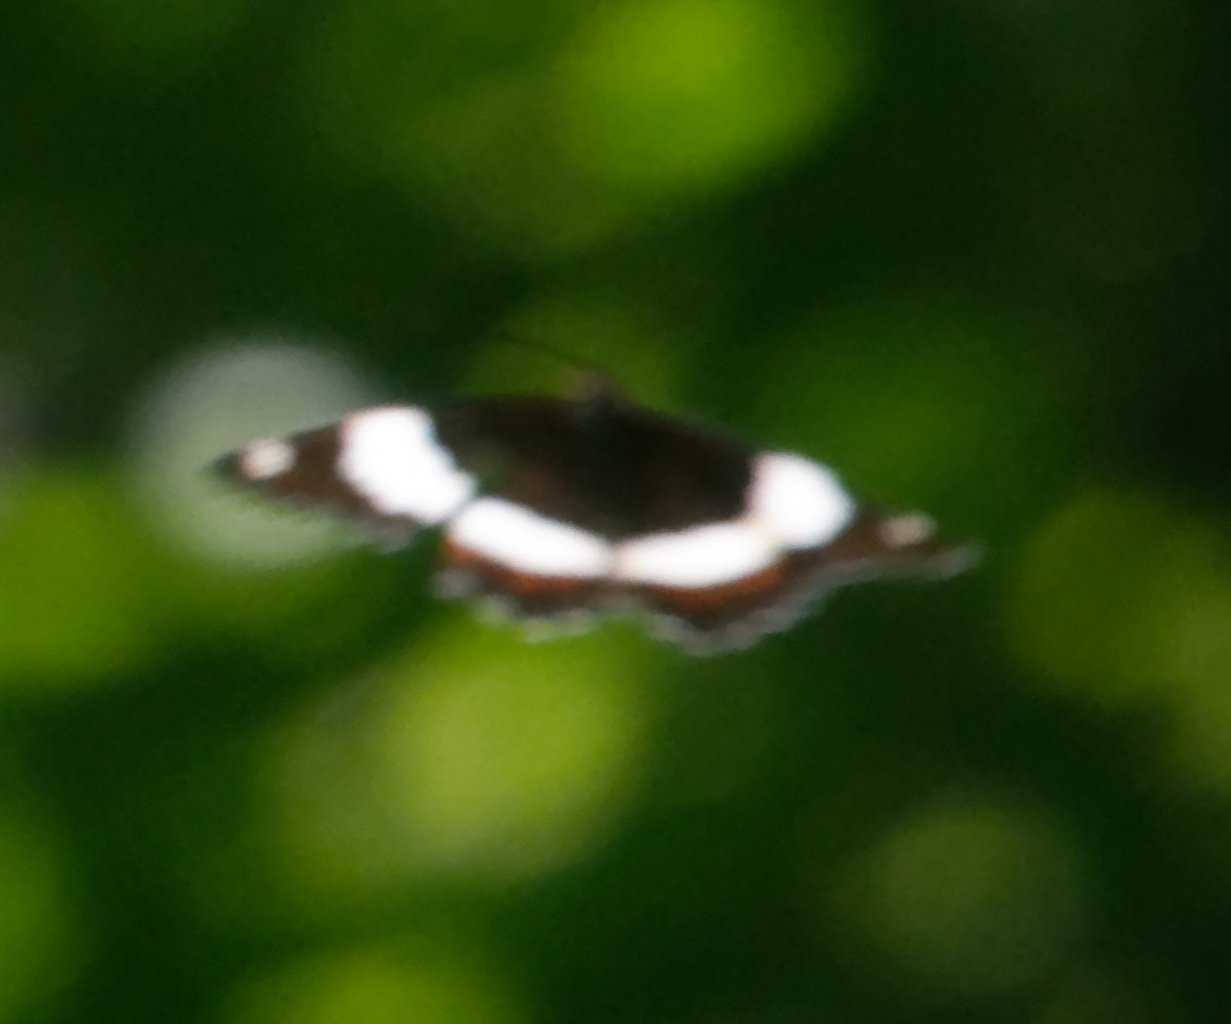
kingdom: Animalia
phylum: Arthropoda
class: Insecta
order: Lepidoptera
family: Nymphalidae
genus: Limenitis
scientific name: Limenitis arthemis
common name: Red-spotted Admiral
